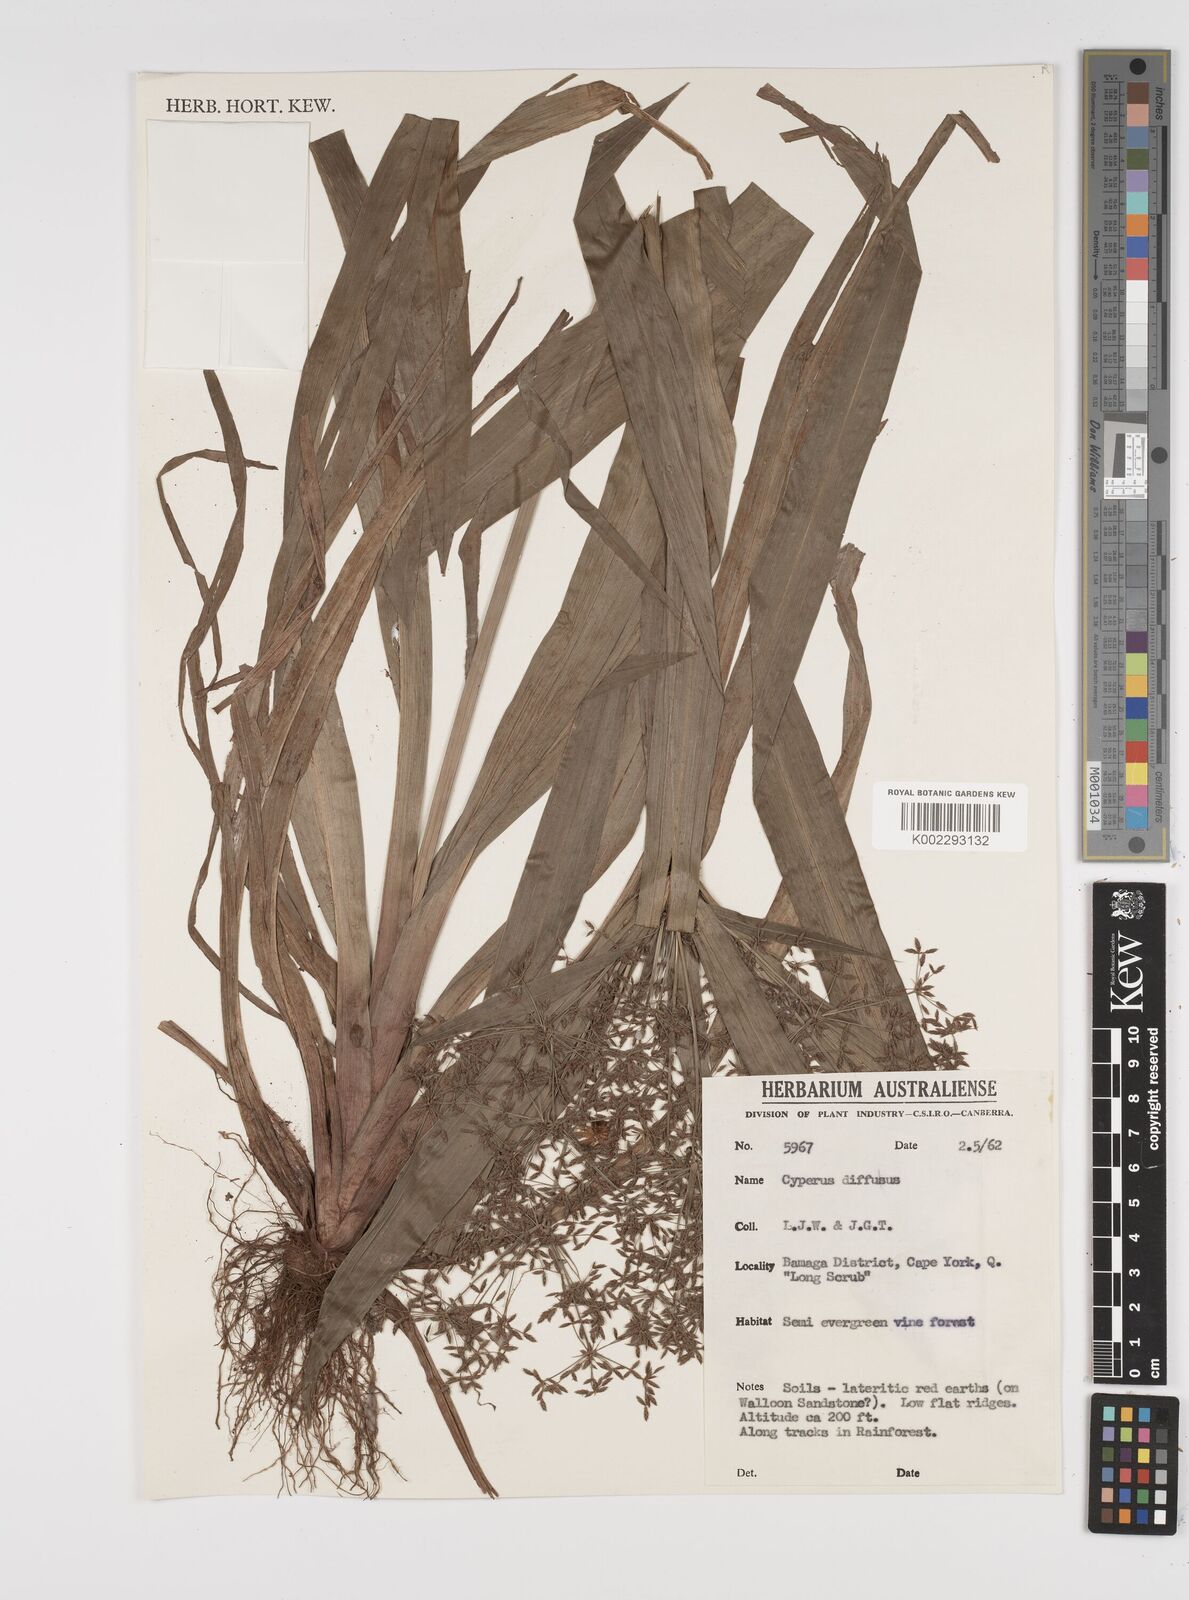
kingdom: Plantae
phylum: Tracheophyta
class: Liliopsida
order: Poales
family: Cyperaceae
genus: Cyperus
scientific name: Cyperus laxus
